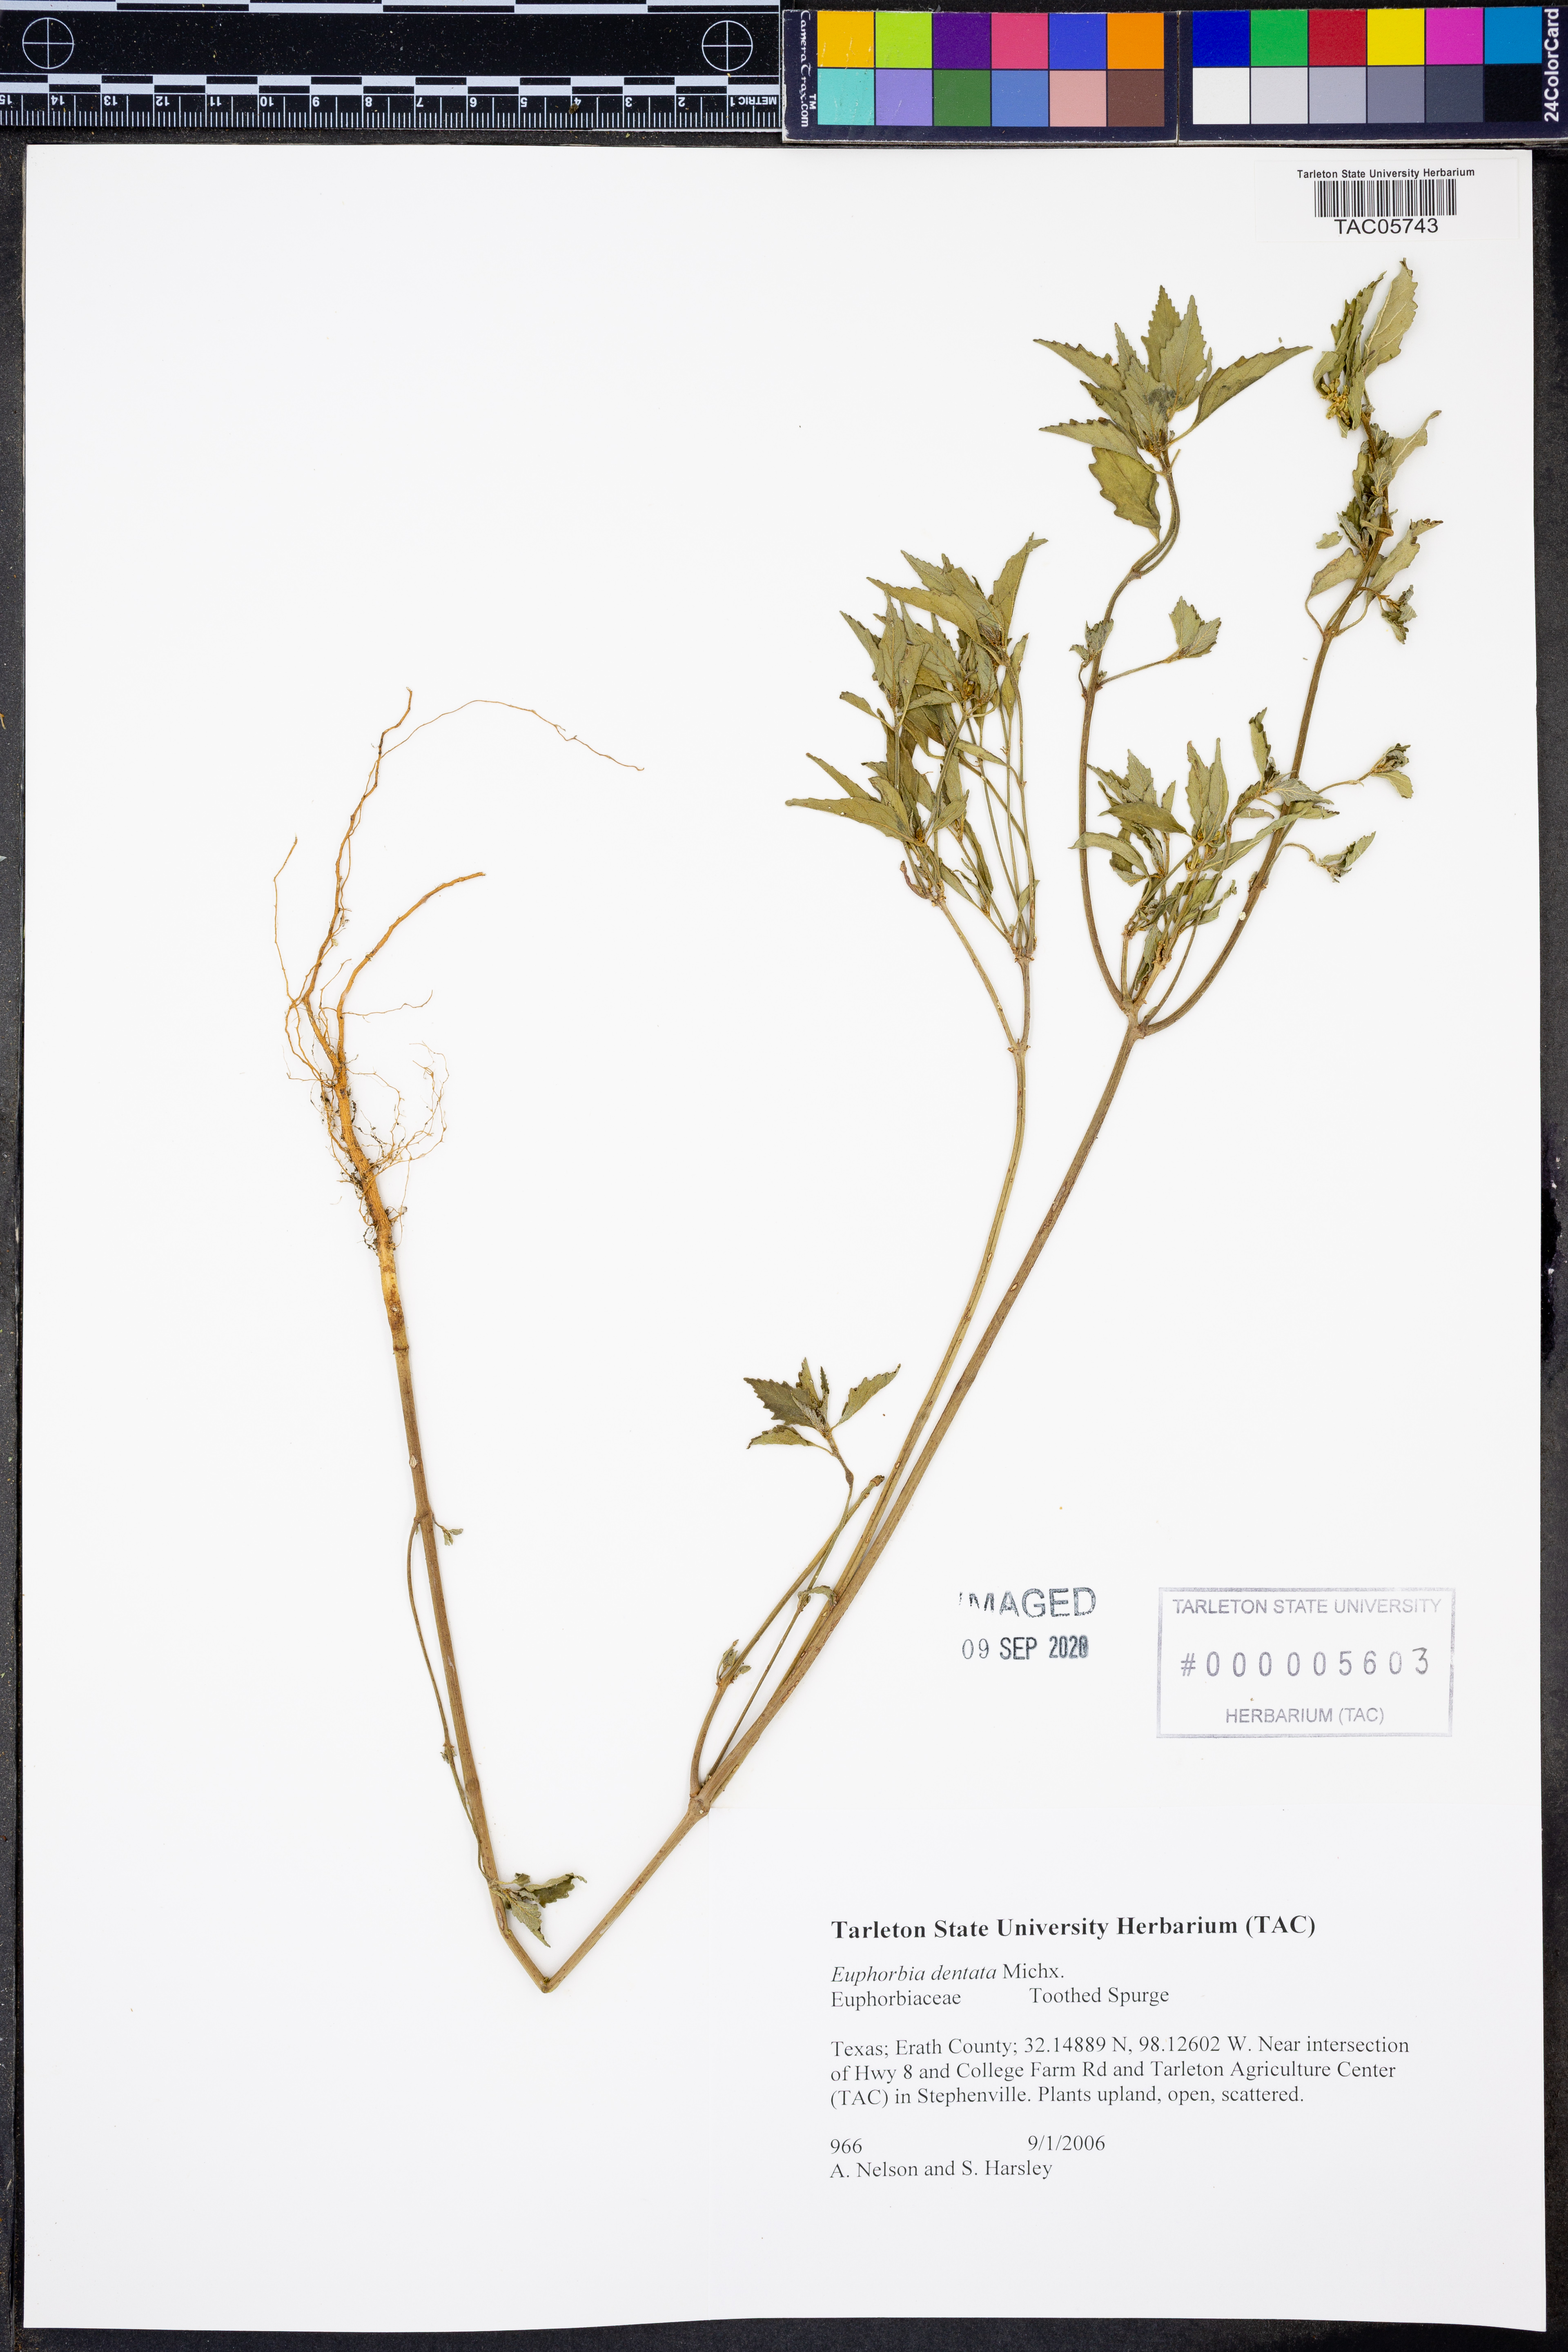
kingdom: Plantae
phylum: Tracheophyta
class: Magnoliopsida
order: Malpighiales
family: Euphorbiaceae
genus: Euphorbia
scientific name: Euphorbia dentata
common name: Dentate spurge
